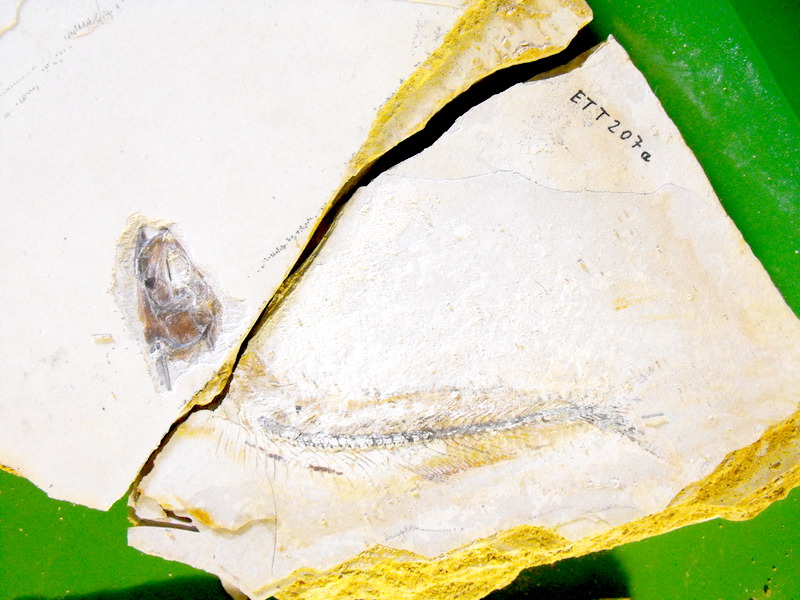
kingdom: Animalia
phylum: Chordata
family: Allothrissopidae
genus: Allothrissops
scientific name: Allothrissops mesogaster
